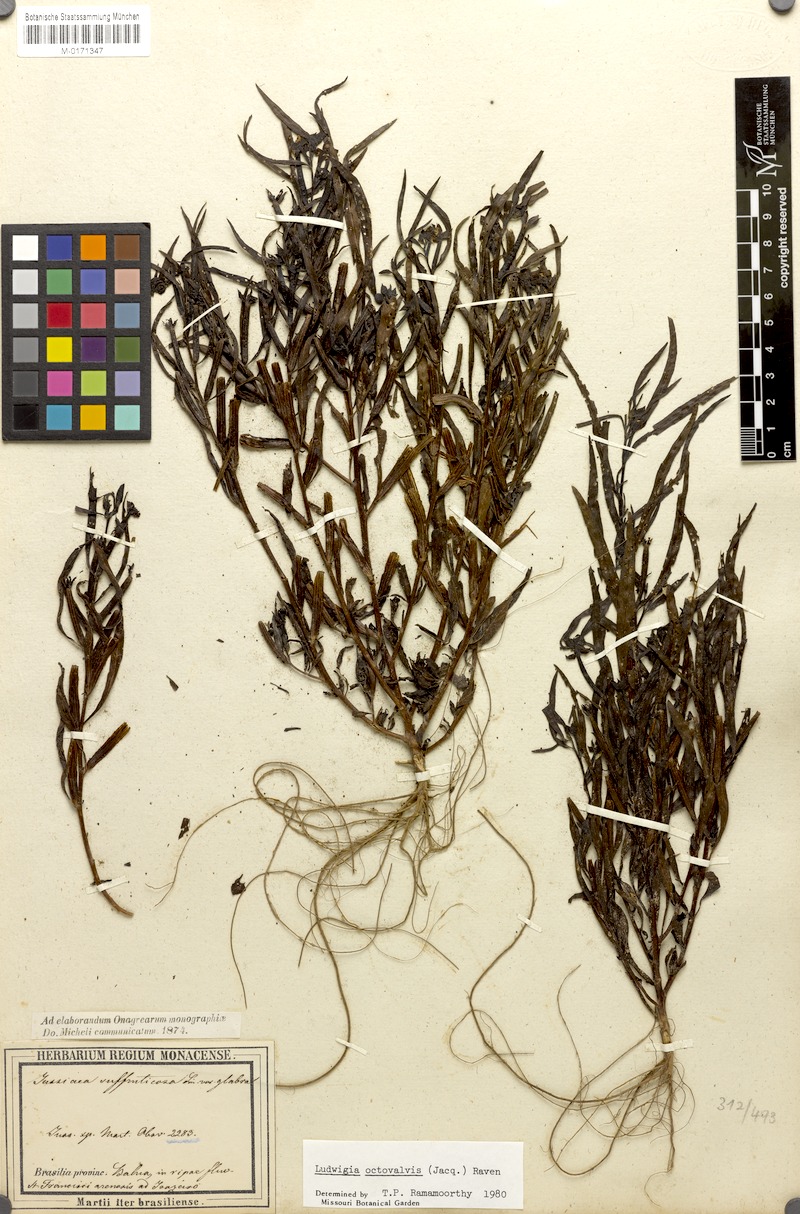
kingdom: Plantae
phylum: Tracheophyta
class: Magnoliopsida
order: Myrtales
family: Onagraceae
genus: Ludwigia
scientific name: Ludwigia octovalvis
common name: Water-primrose
